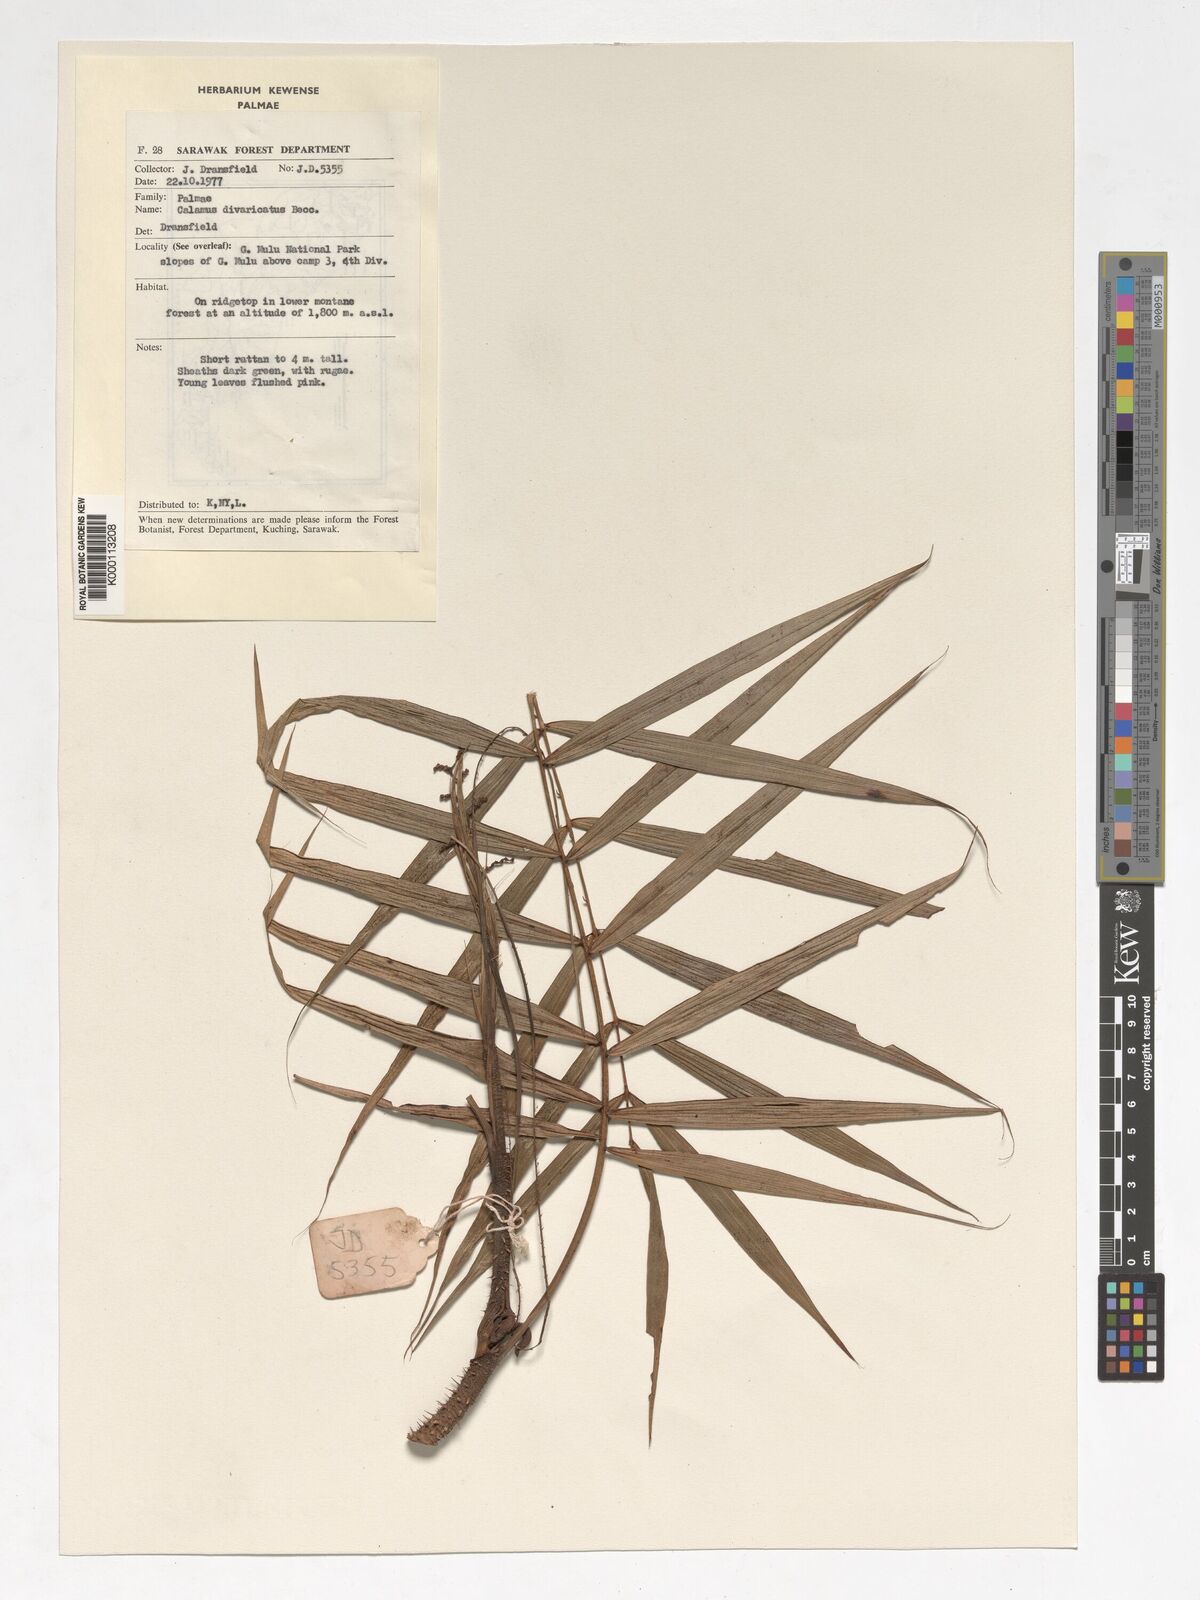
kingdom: Plantae
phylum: Tracheophyta
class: Liliopsida
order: Arecales
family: Arecaceae
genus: Calamus
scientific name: Calamus divaricatus
